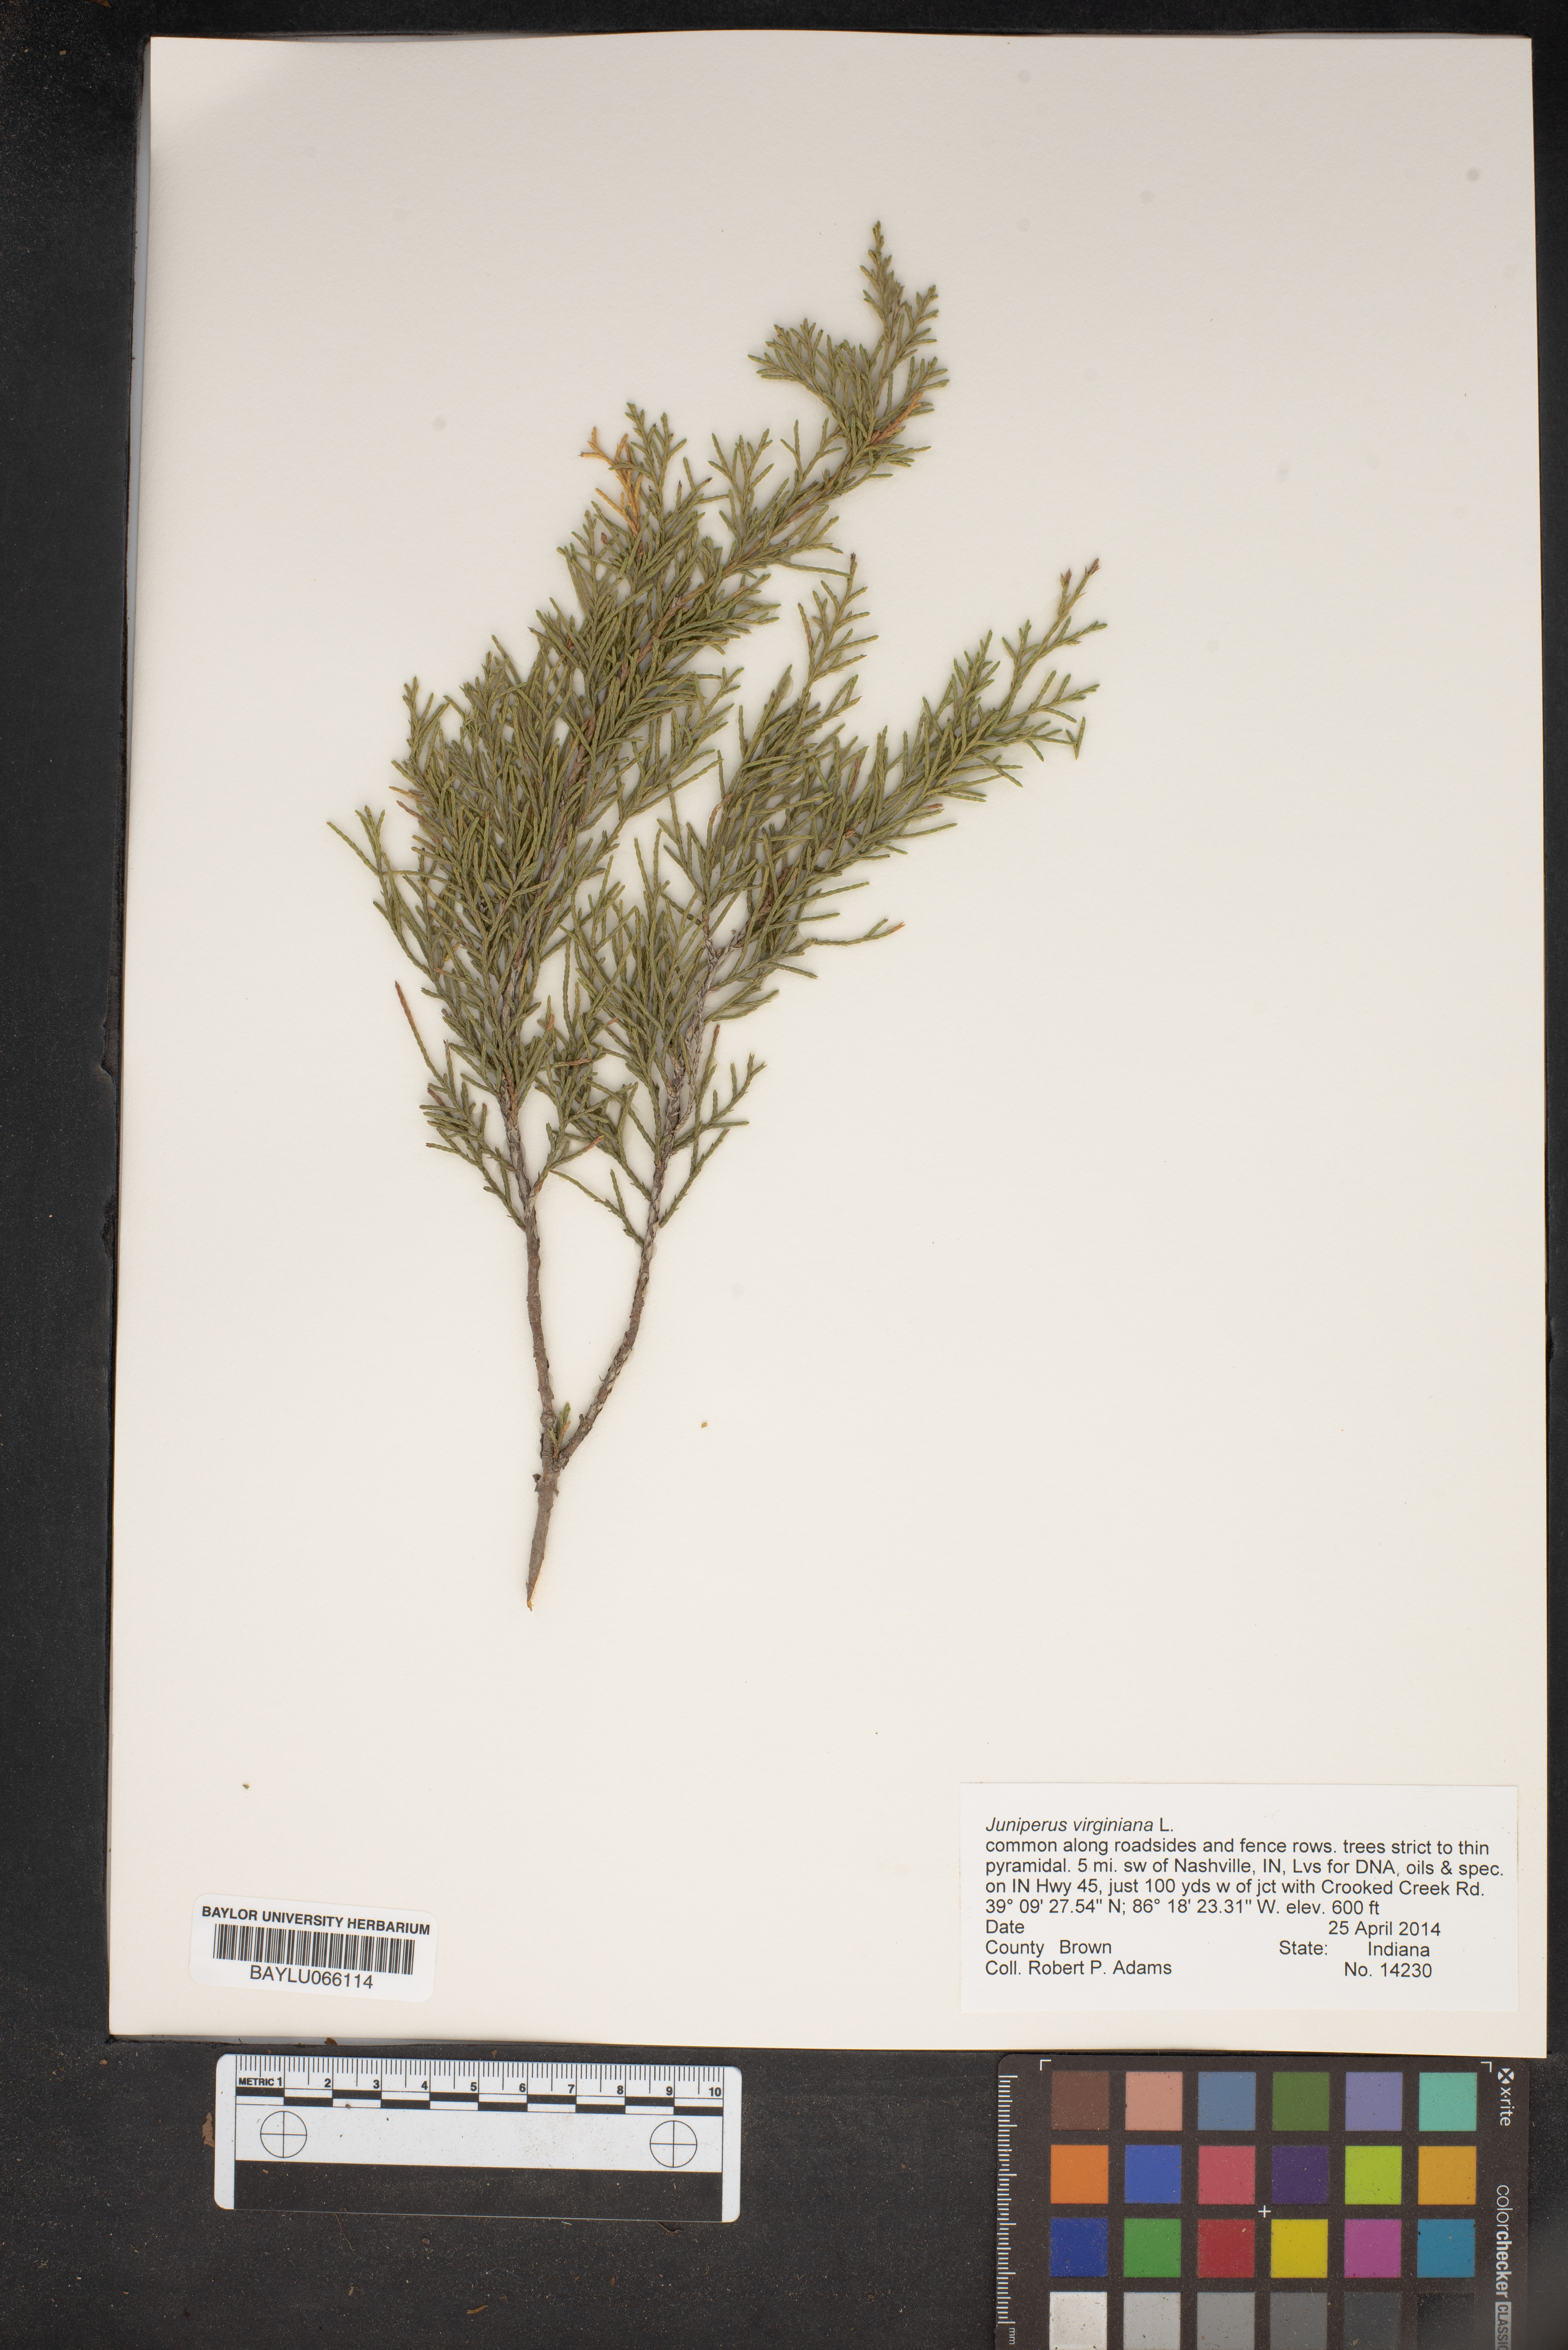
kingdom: Plantae
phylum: Tracheophyta
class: Pinopsida
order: Pinales
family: Cupressaceae
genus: Juniperus
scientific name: Juniperus virginiana
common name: Red juniper
